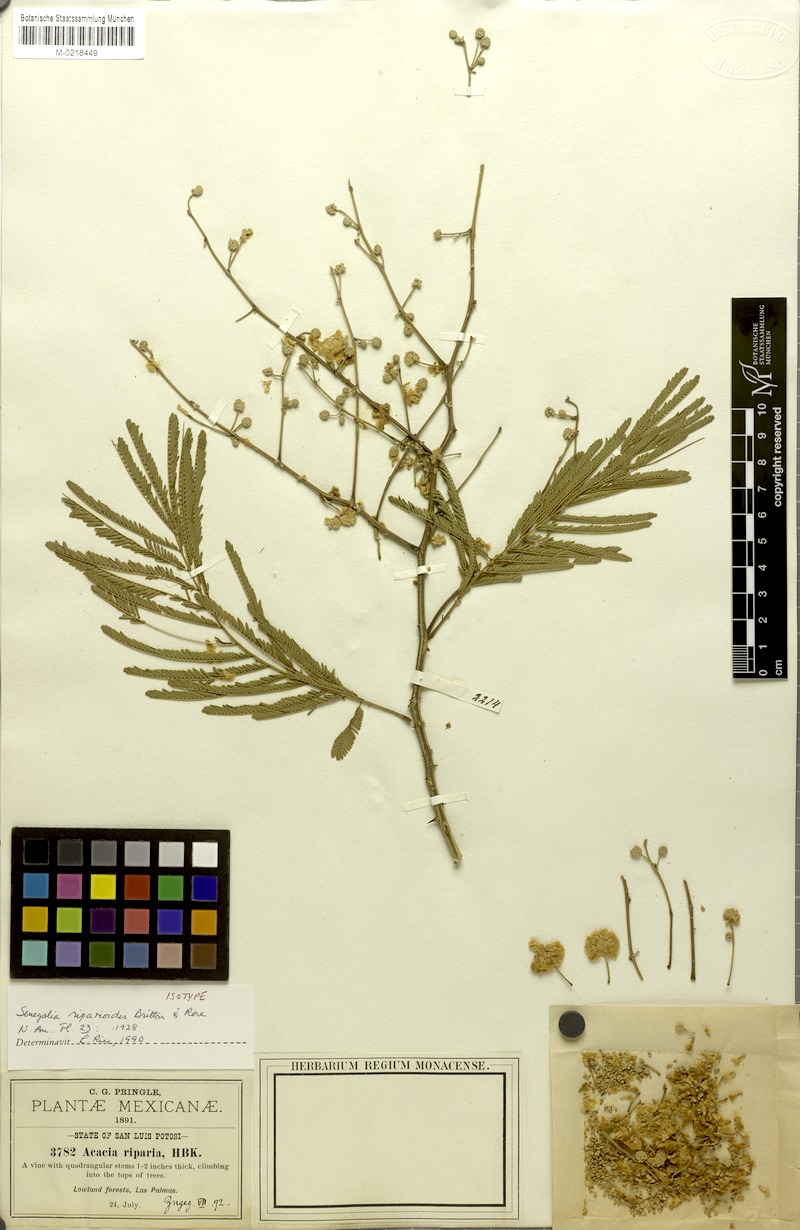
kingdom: Plantae
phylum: Tracheophyta
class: Magnoliopsida
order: Fabales
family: Fabaceae
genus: Senegalia
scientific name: Senegalia riparia
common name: Catch-and-keep
